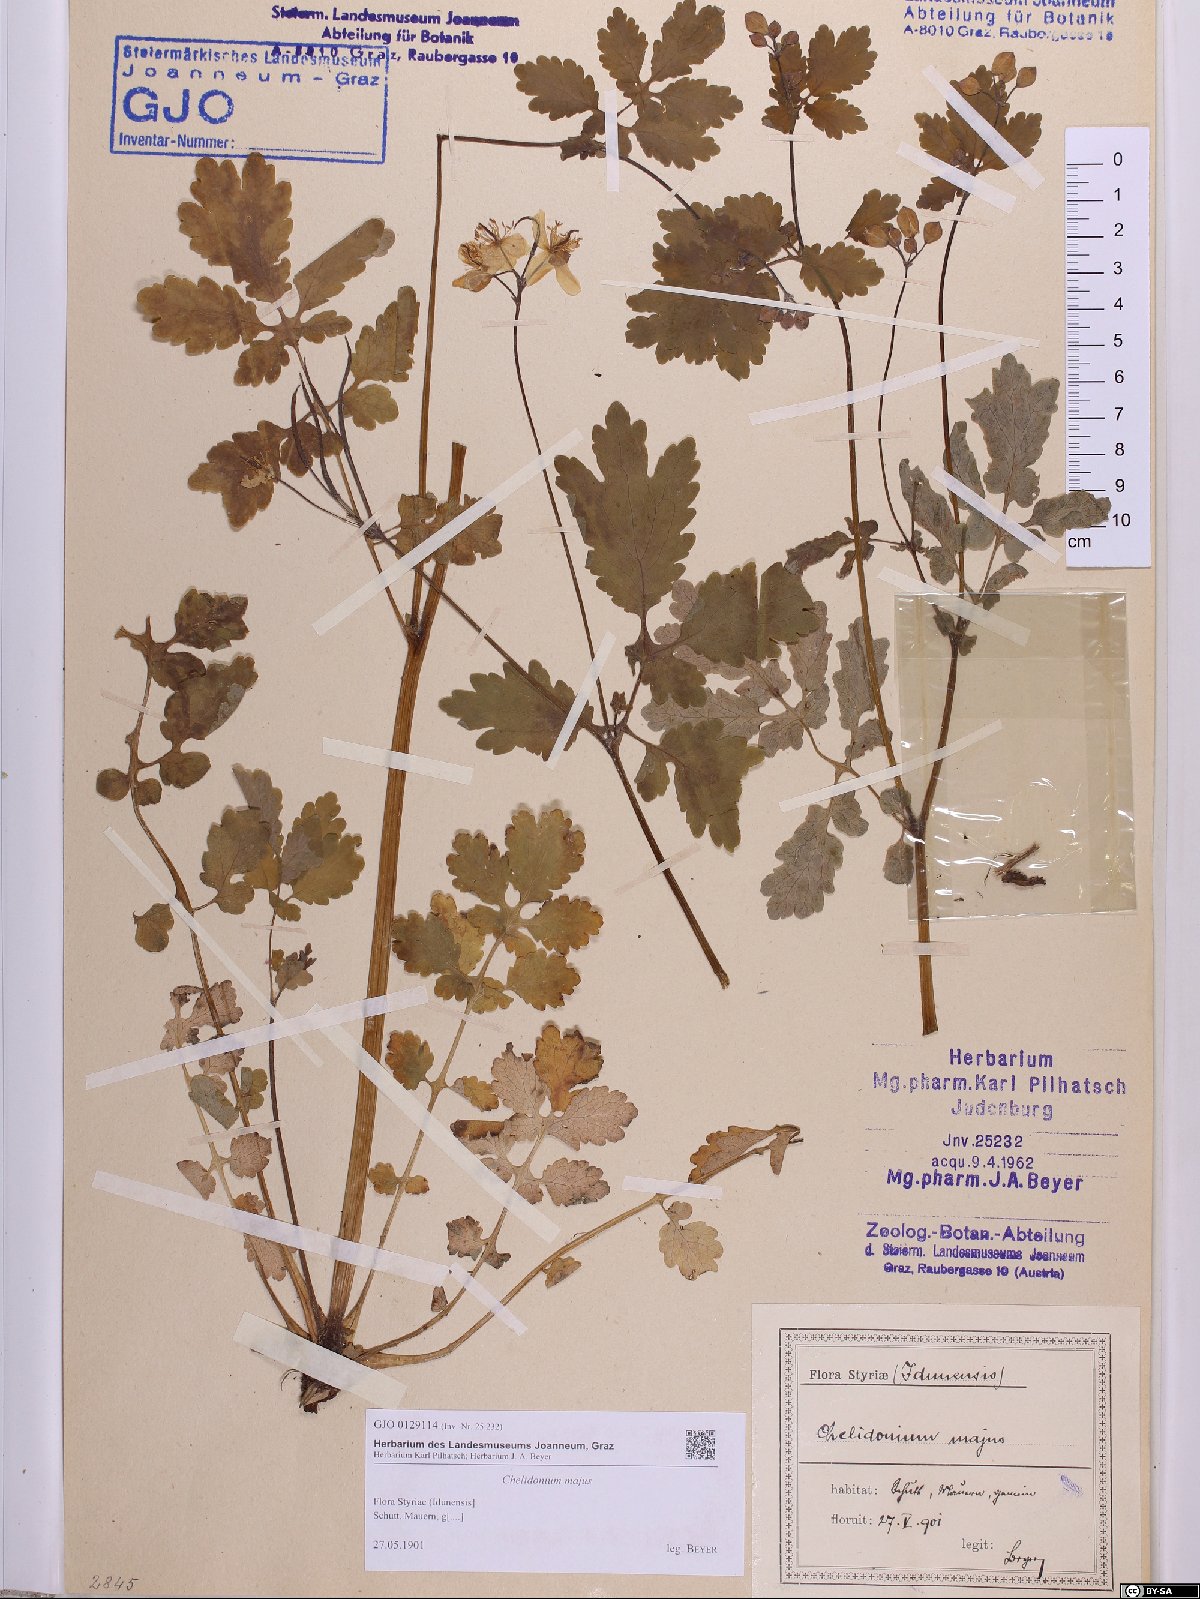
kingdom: Plantae
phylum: Tracheophyta
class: Magnoliopsida
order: Ranunculales
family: Papaveraceae
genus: Chelidonium
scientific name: Chelidonium majus
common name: Greater celandine
